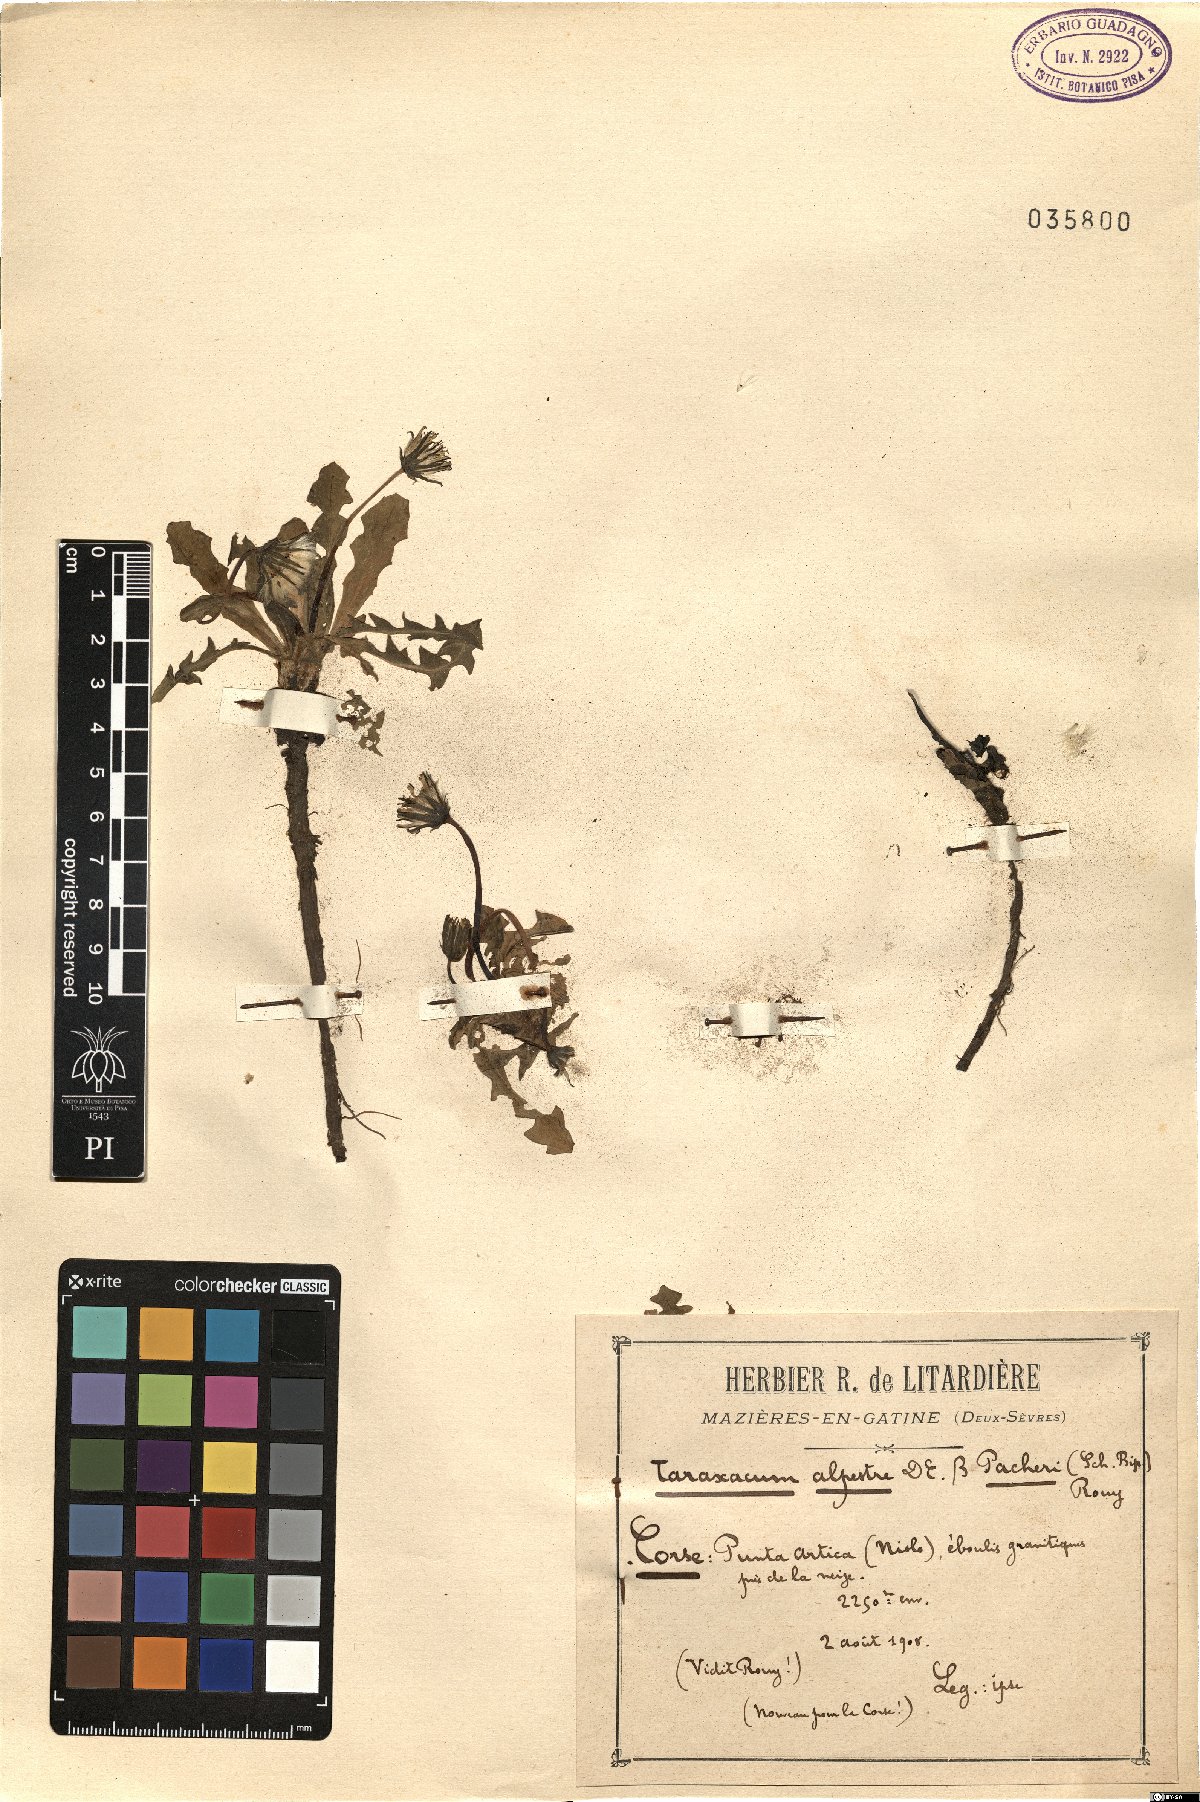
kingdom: Plantae
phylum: Tracheophyta
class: Magnoliopsida
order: Asterales
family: Asteraceae
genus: Taraxacum
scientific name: Taraxacum alpestre
